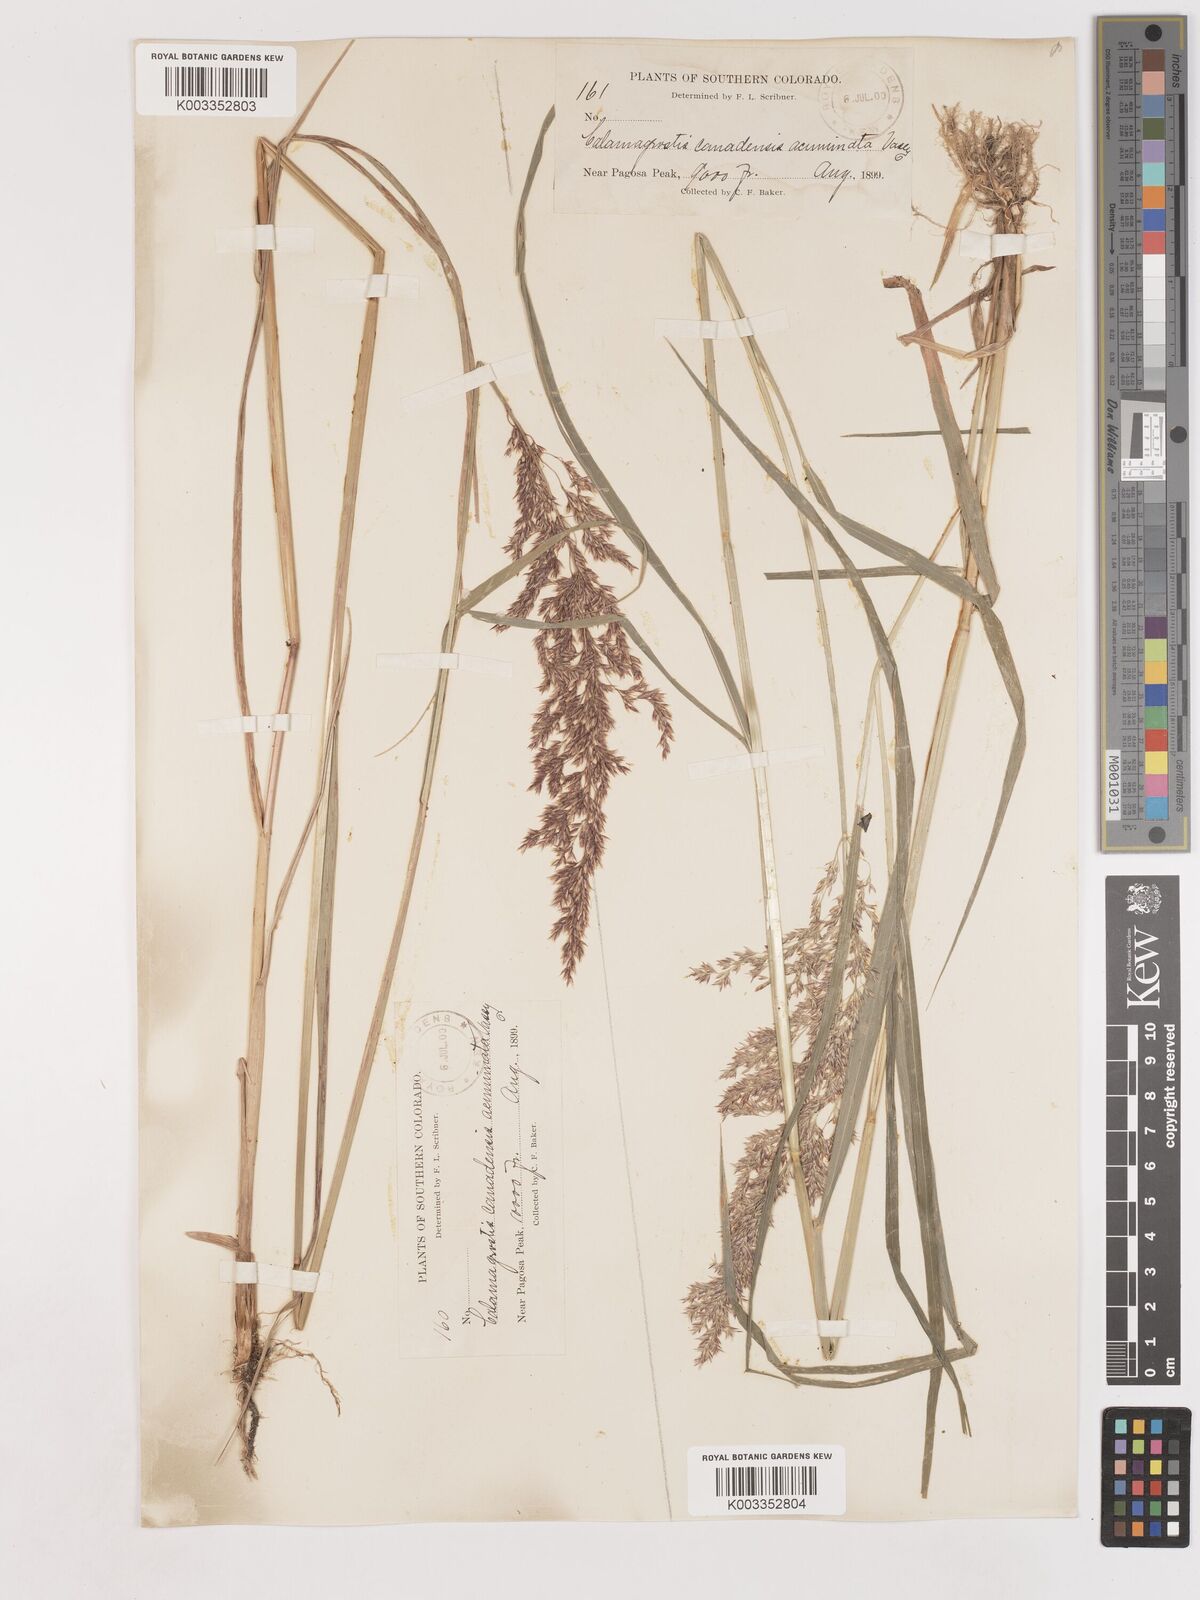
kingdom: Plantae
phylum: Tracheophyta
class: Liliopsida
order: Poales
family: Poaceae
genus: Calamagrostis
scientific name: Calamagrostis canadensis
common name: Canada bluejoint
